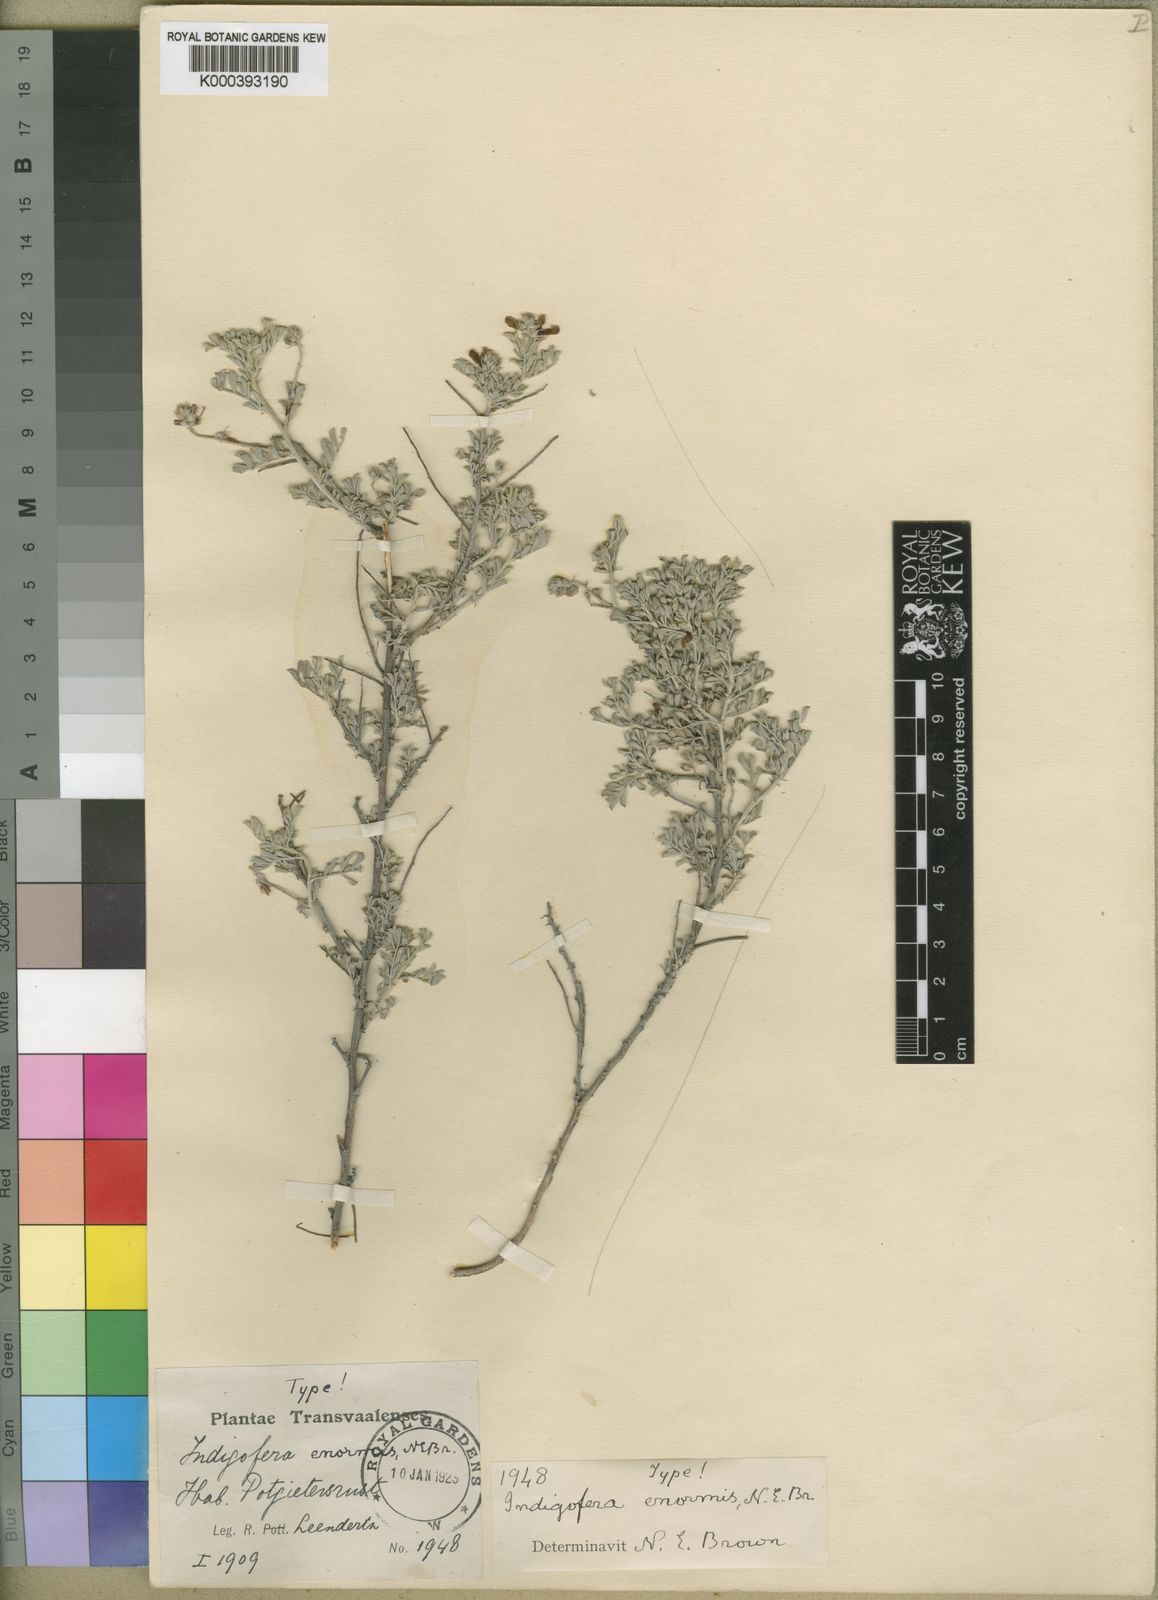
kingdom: Plantae
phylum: Tracheophyta
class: Magnoliopsida
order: Fabales
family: Fabaceae
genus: Indigofera
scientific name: Indigofera enormis
